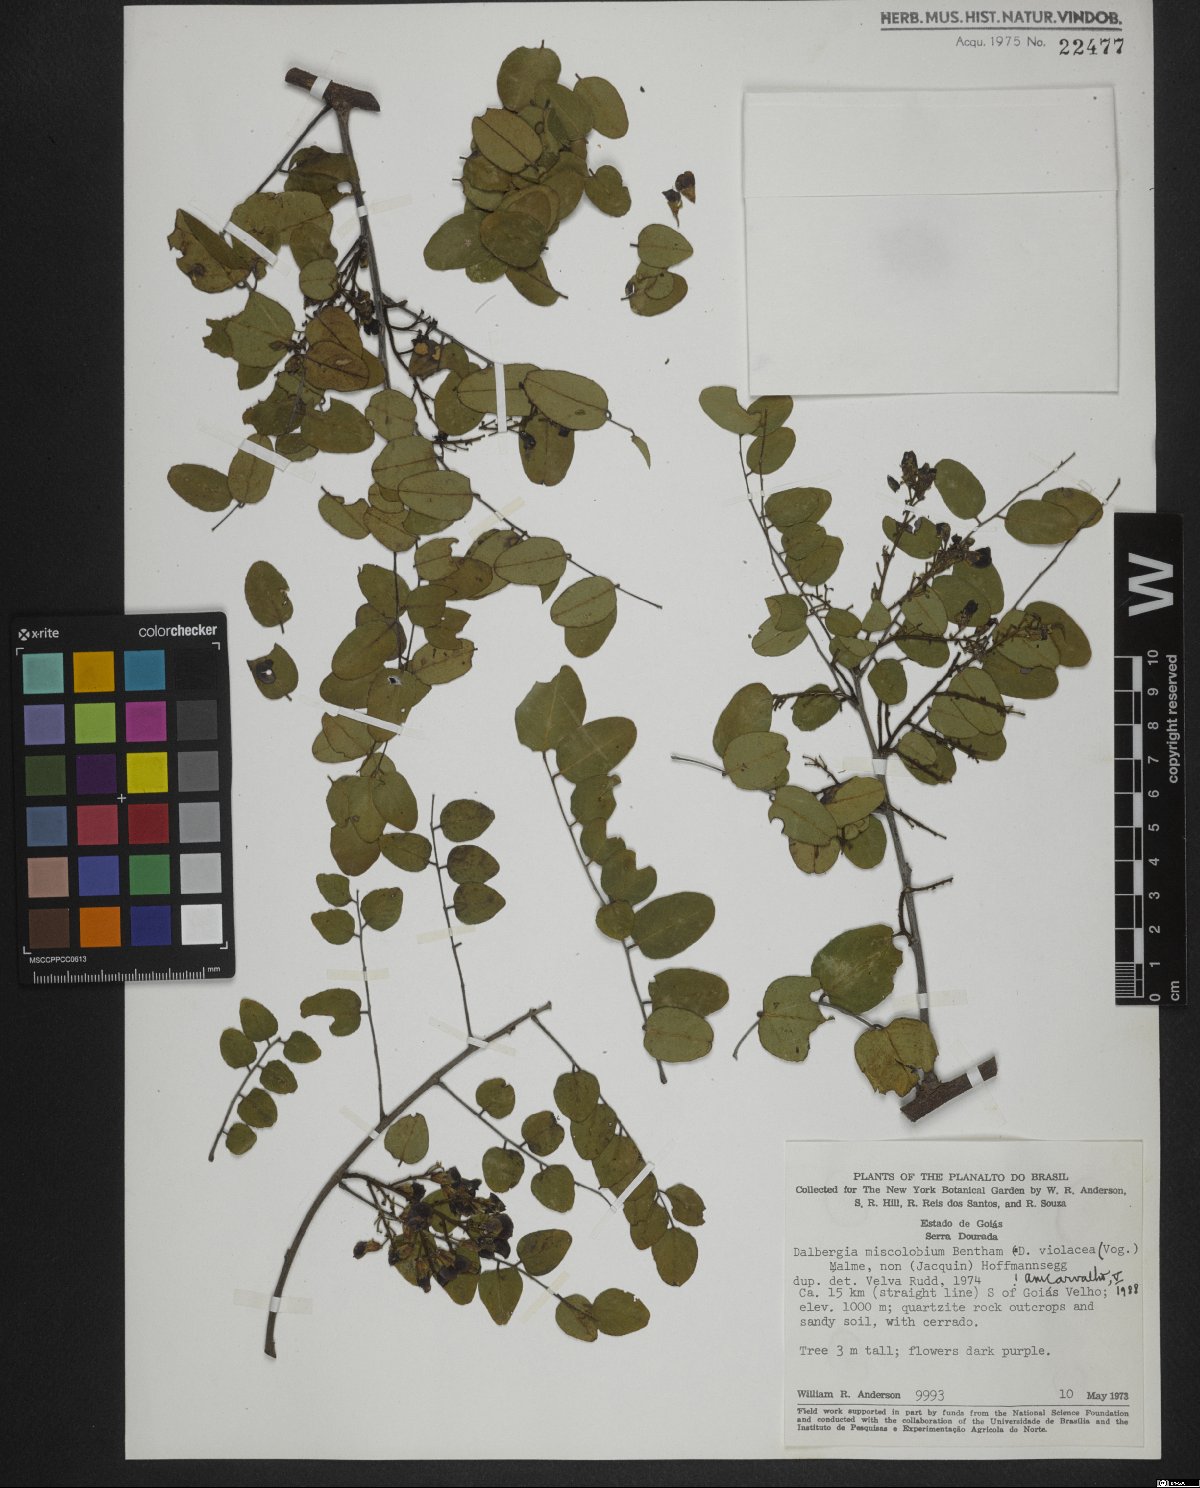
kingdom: Plantae
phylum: Tracheophyta
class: Magnoliopsida
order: Fabales
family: Fabaceae
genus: Dalbergia
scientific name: Dalbergia miscolobium
